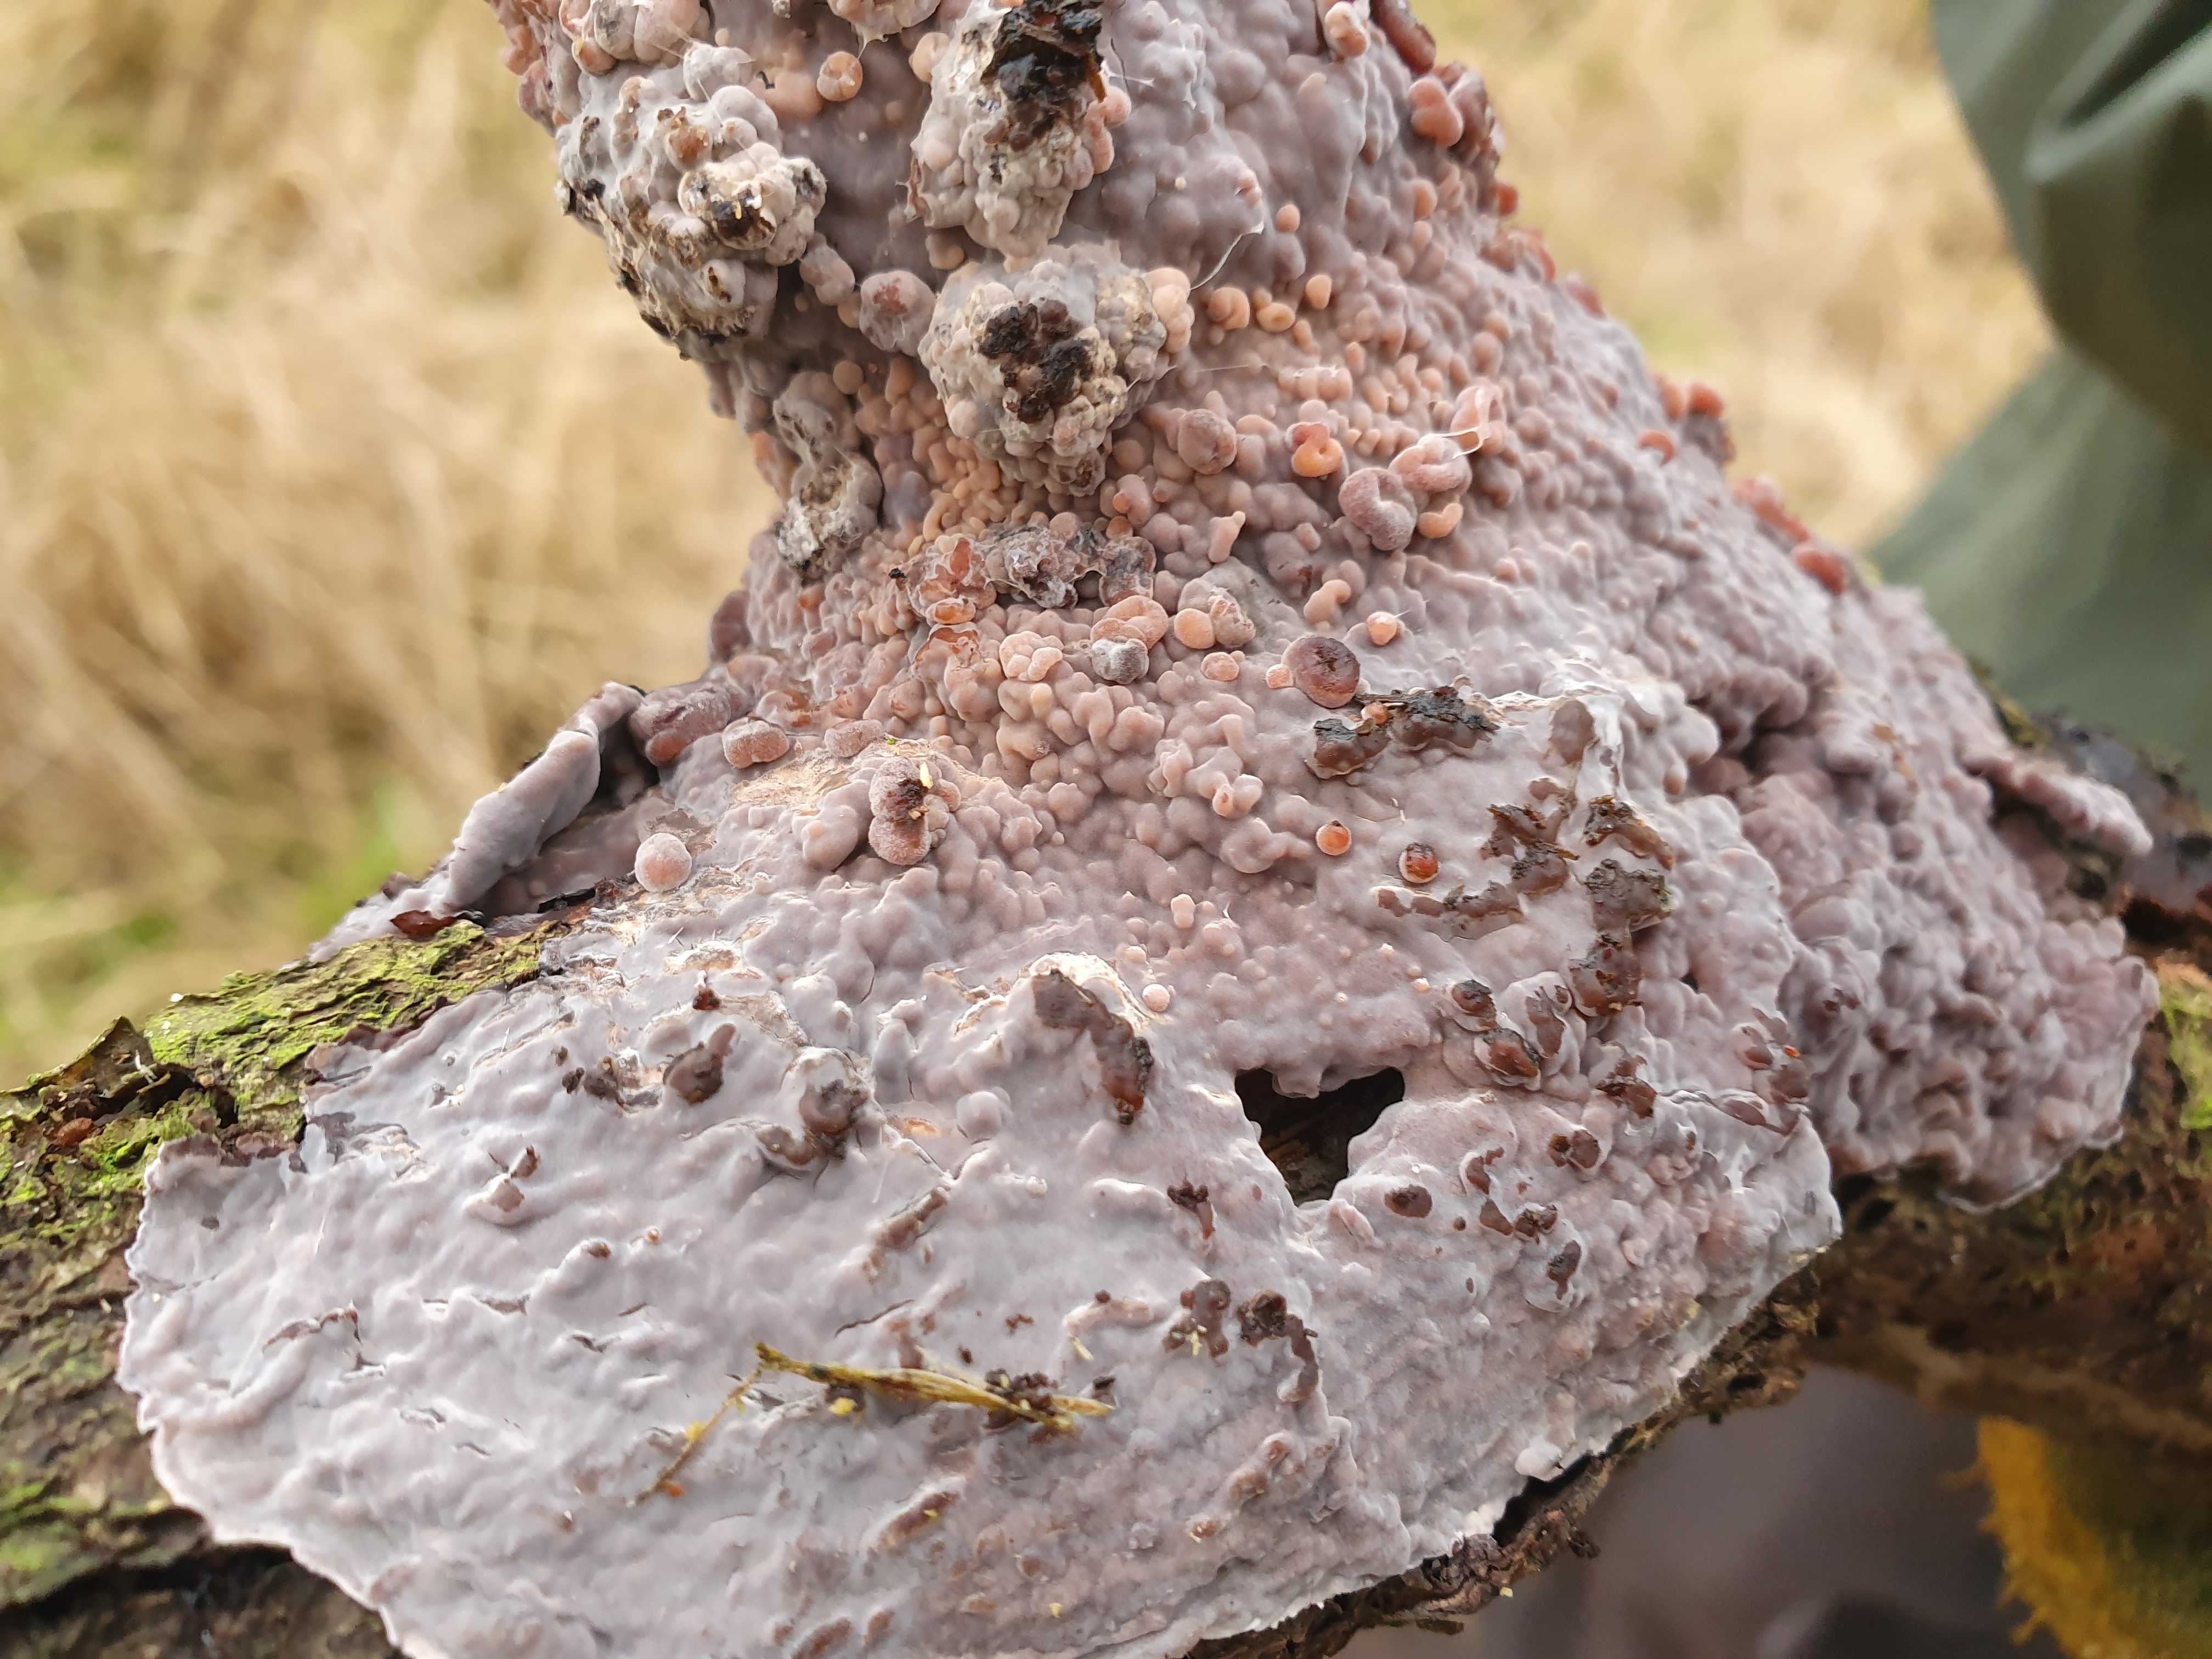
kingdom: Fungi
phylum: Basidiomycota
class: Agaricomycetes
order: Russulales
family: Peniophoraceae
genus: Peniophora
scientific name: Peniophora quercina
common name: ege-voksskind
